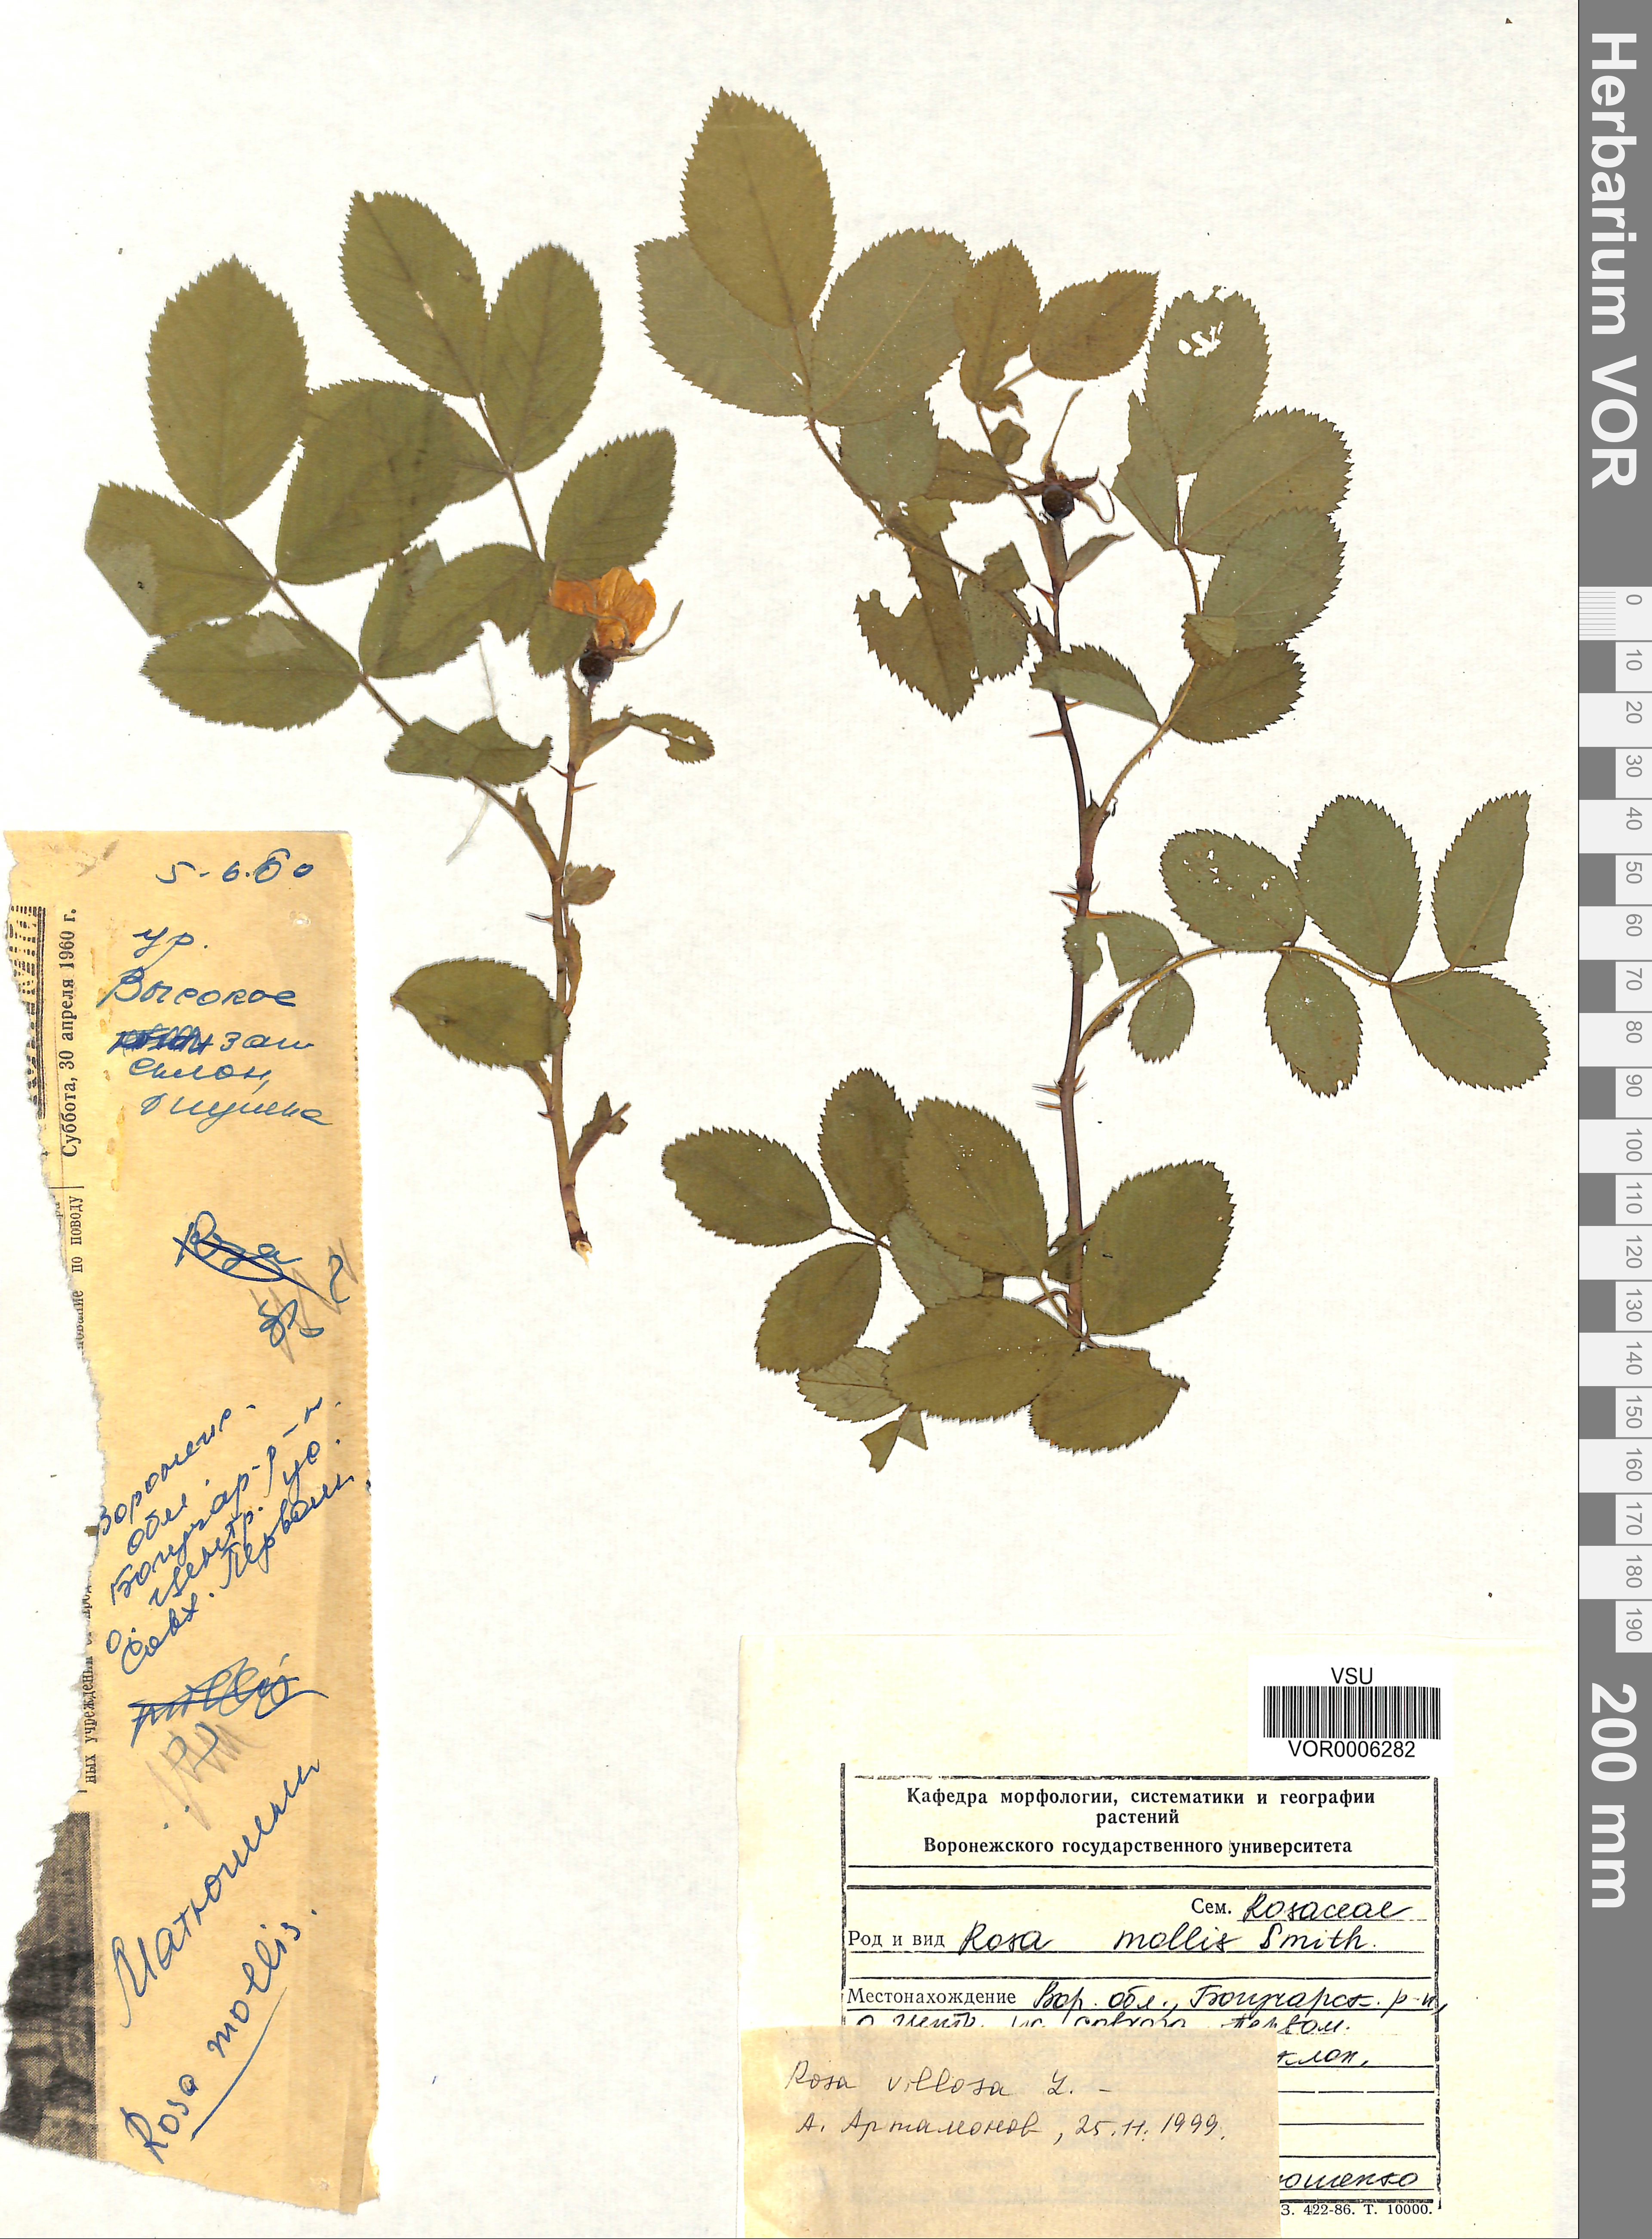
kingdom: Plantae
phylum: Tracheophyta
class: Magnoliopsida
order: Rosales
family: Rosaceae
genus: Rosa
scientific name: Rosa villosa
